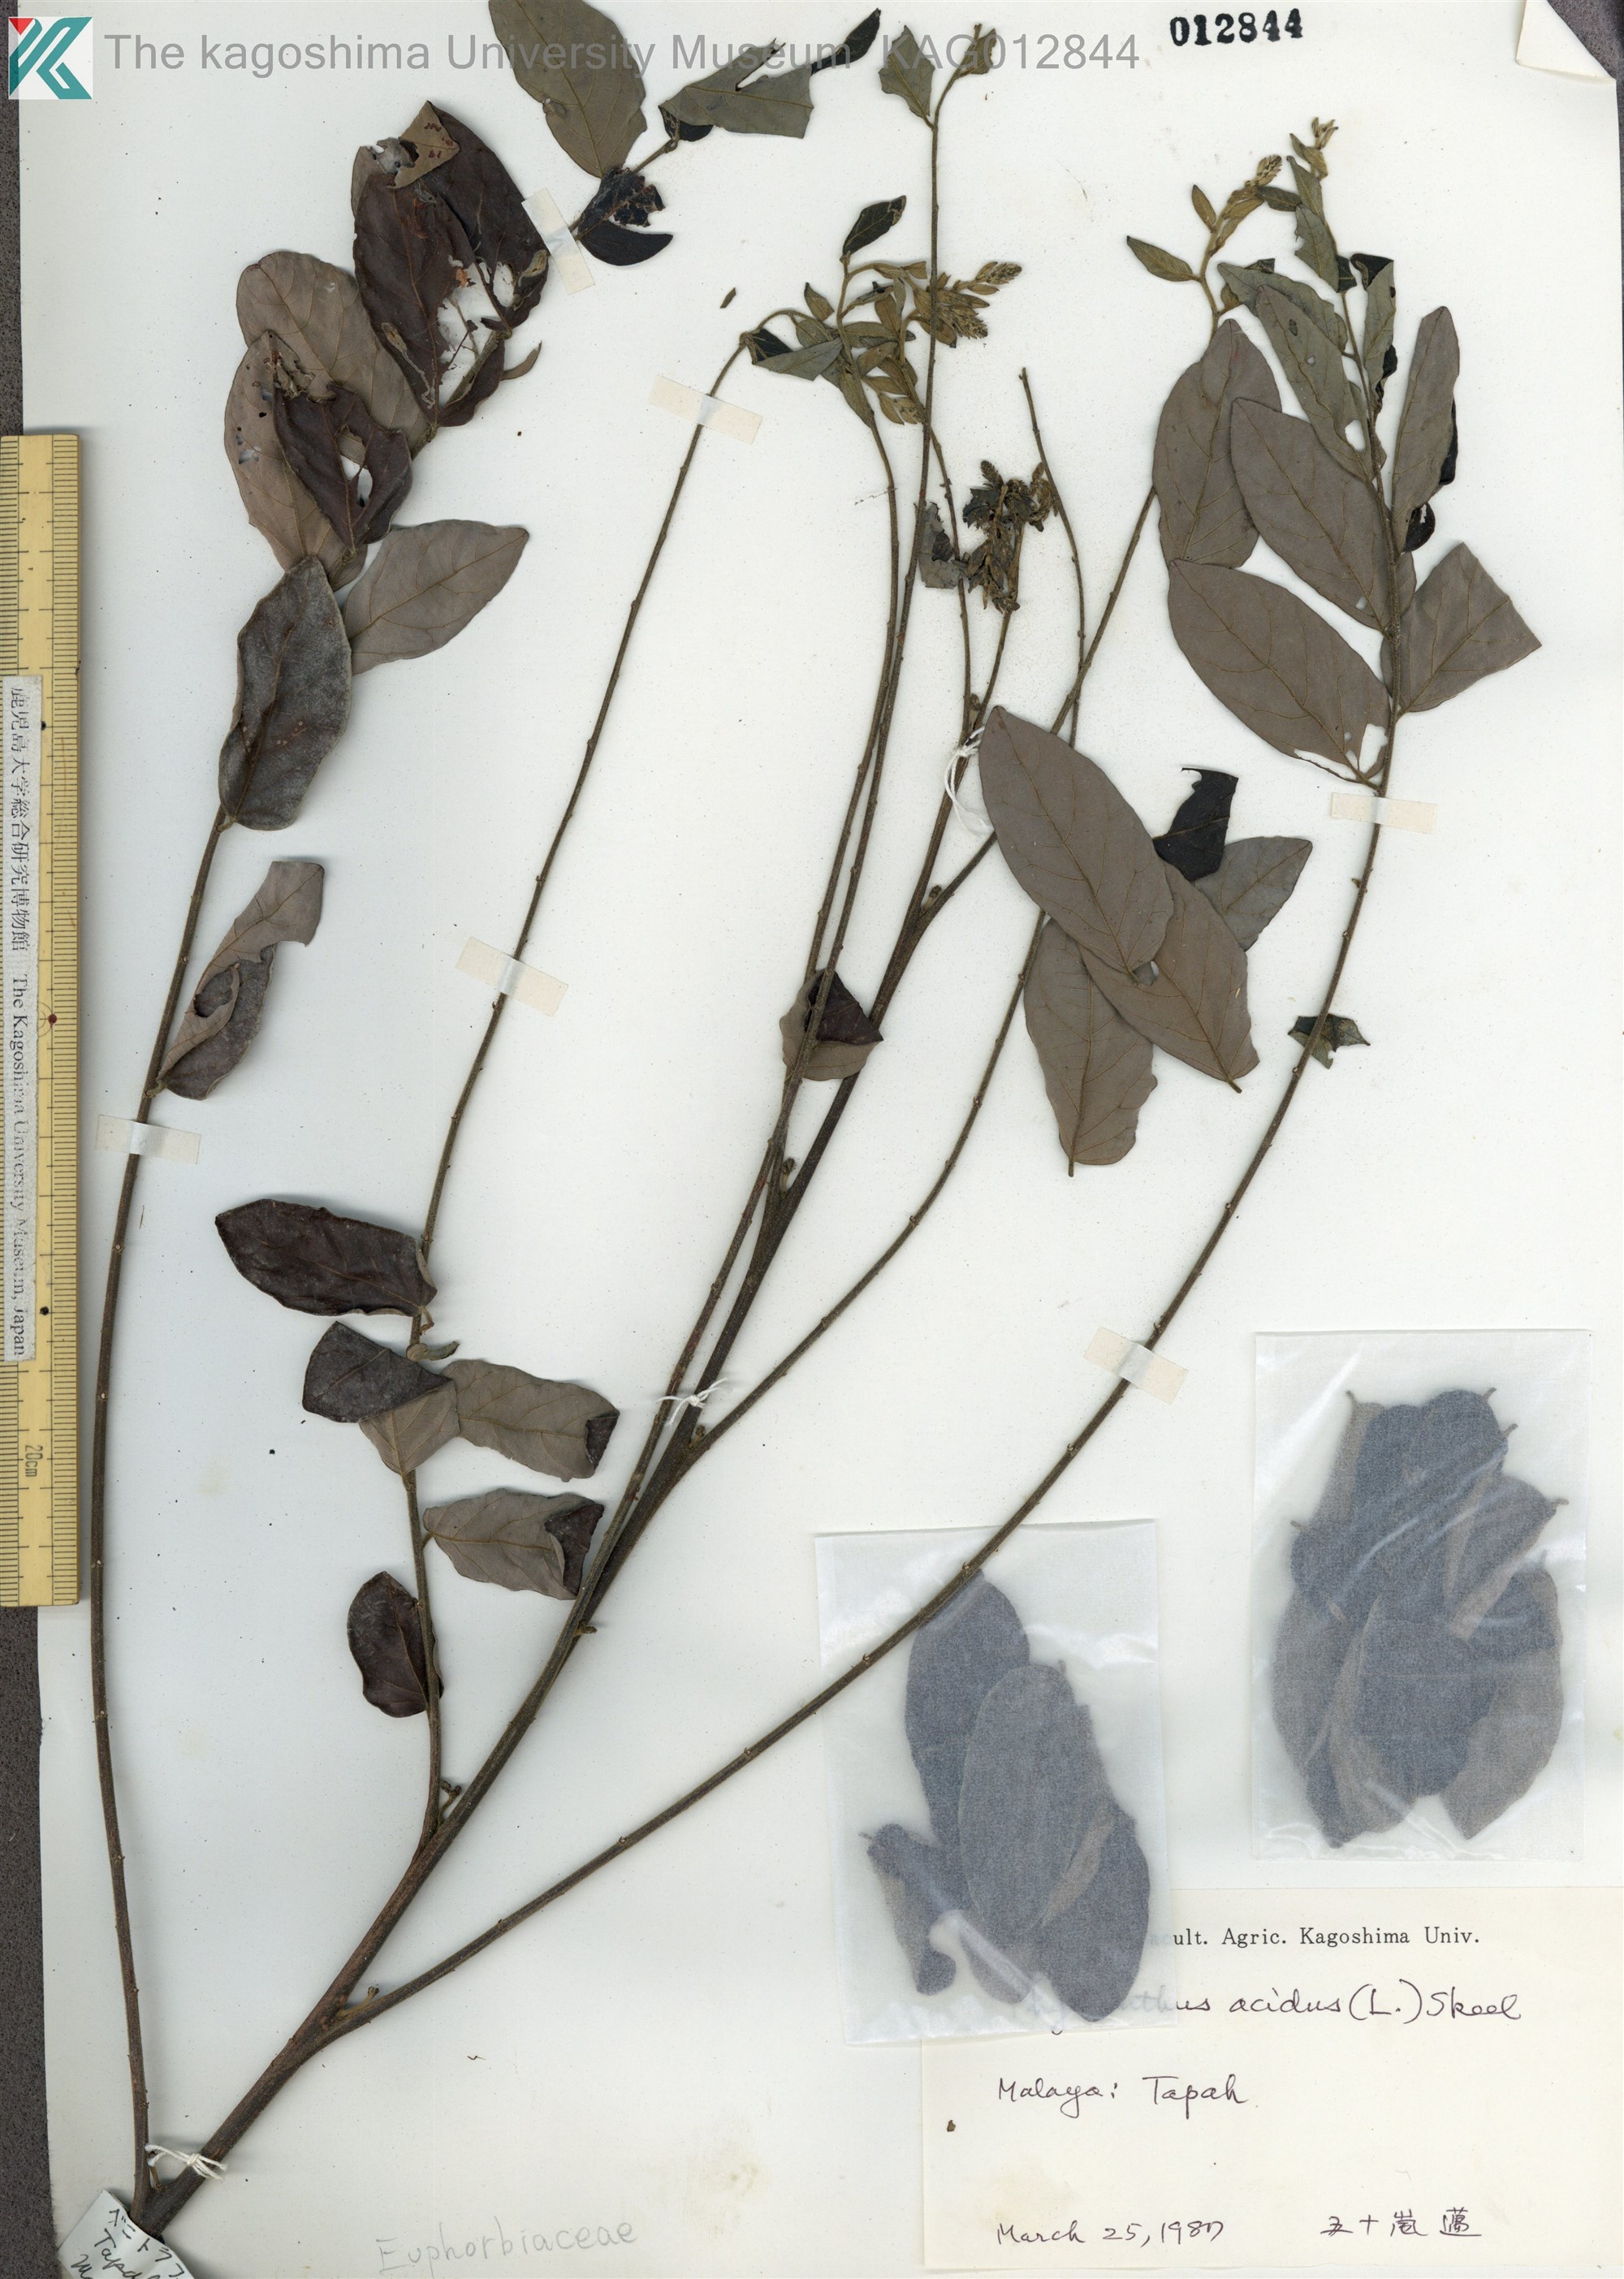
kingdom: Plantae
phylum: Tracheophyta
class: Magnoliopsida
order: Malpighiales
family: Phyllanthaceae
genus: Phyllanthus
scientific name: Phyllanthus acidus
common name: Tahitian gooseberry tree
